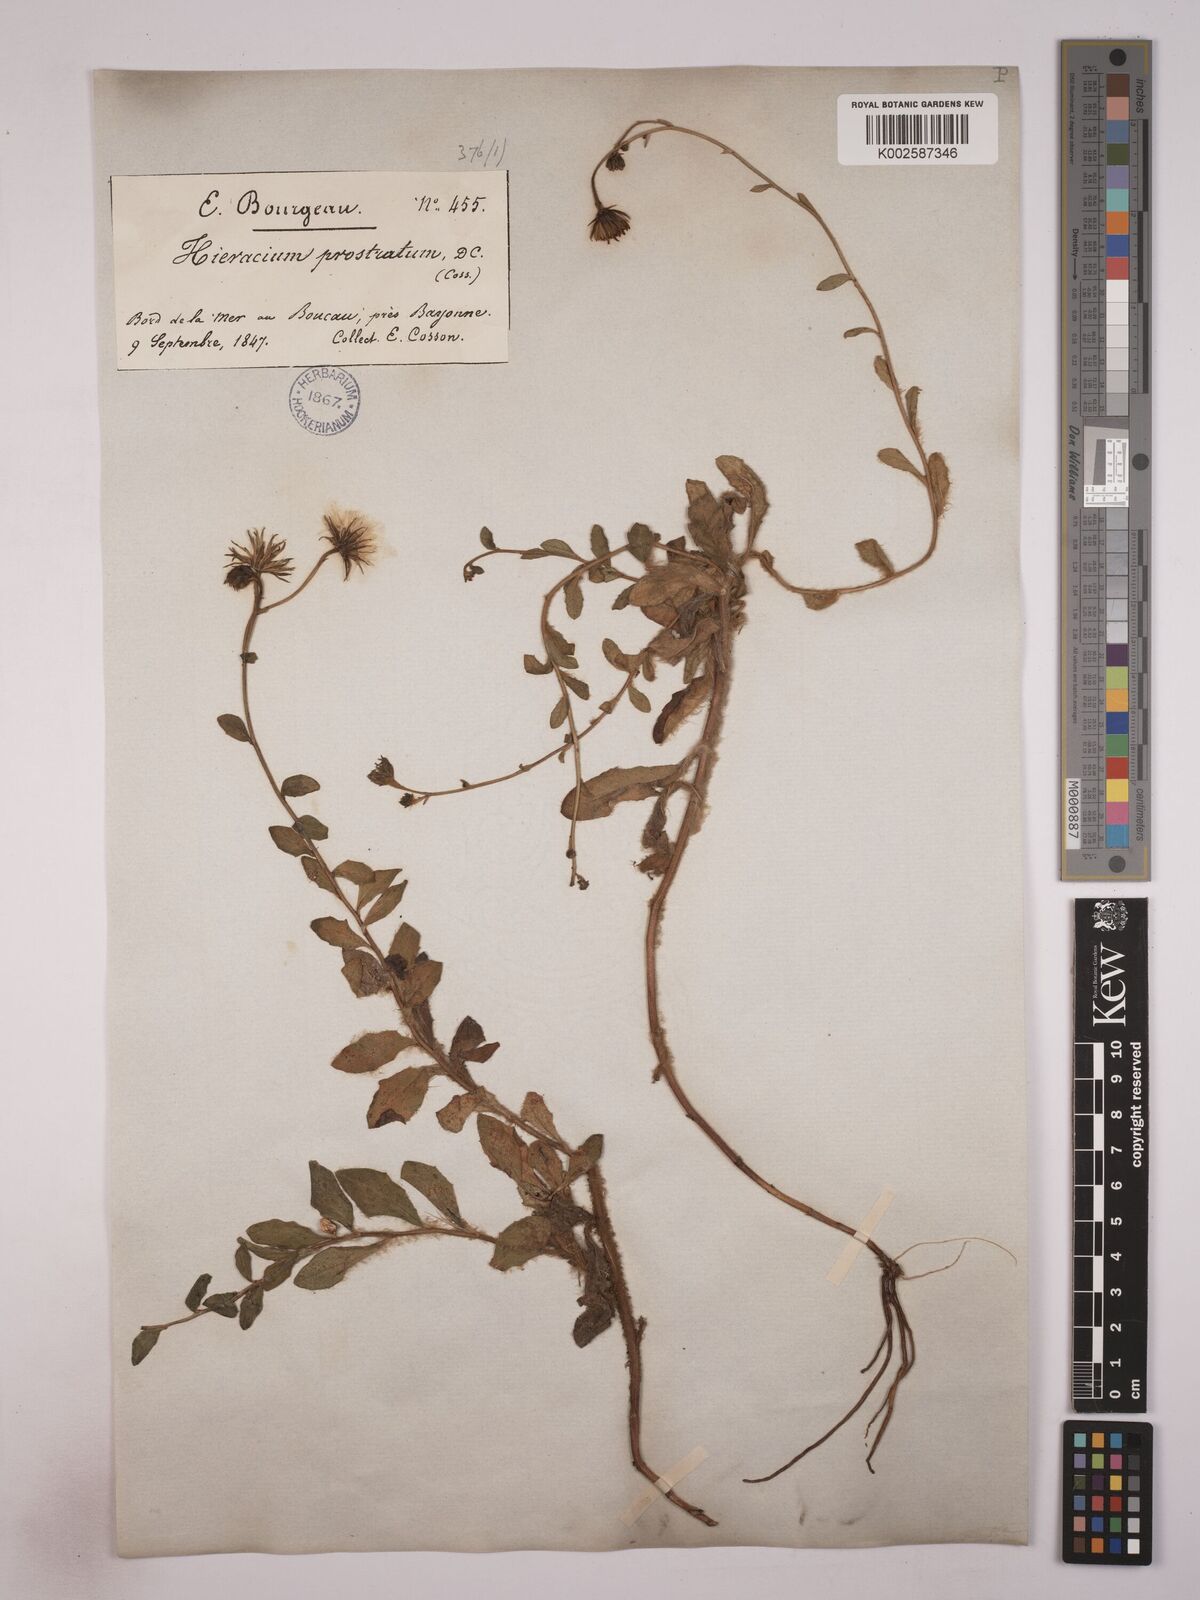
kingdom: Plantae
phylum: Tracheophyta
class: Magnoliopsida
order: Asterales
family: Asteraceae
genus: Hieracium
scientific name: Hieracium prostratum
